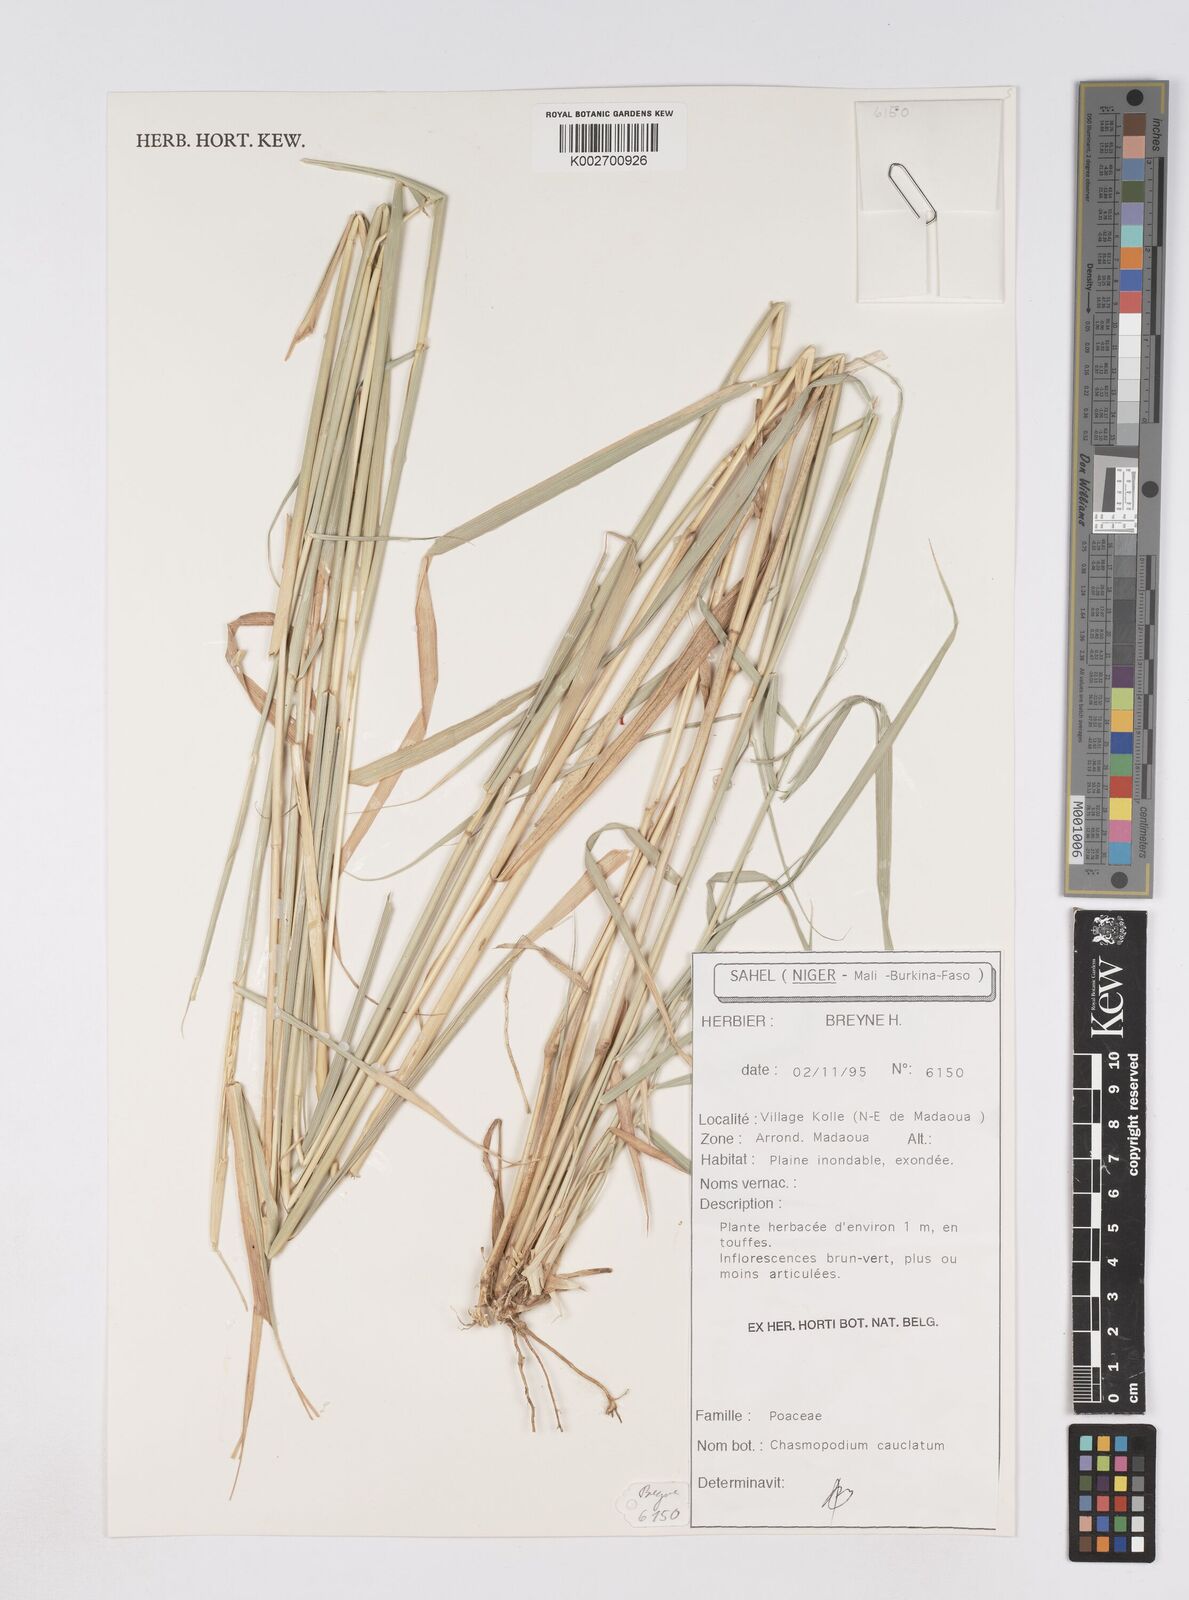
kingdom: Plantae
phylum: Tracheophyta
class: Liliopsida
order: Poales
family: Poaceae
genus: Chasmopodium
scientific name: Chasmopodium caudatum
